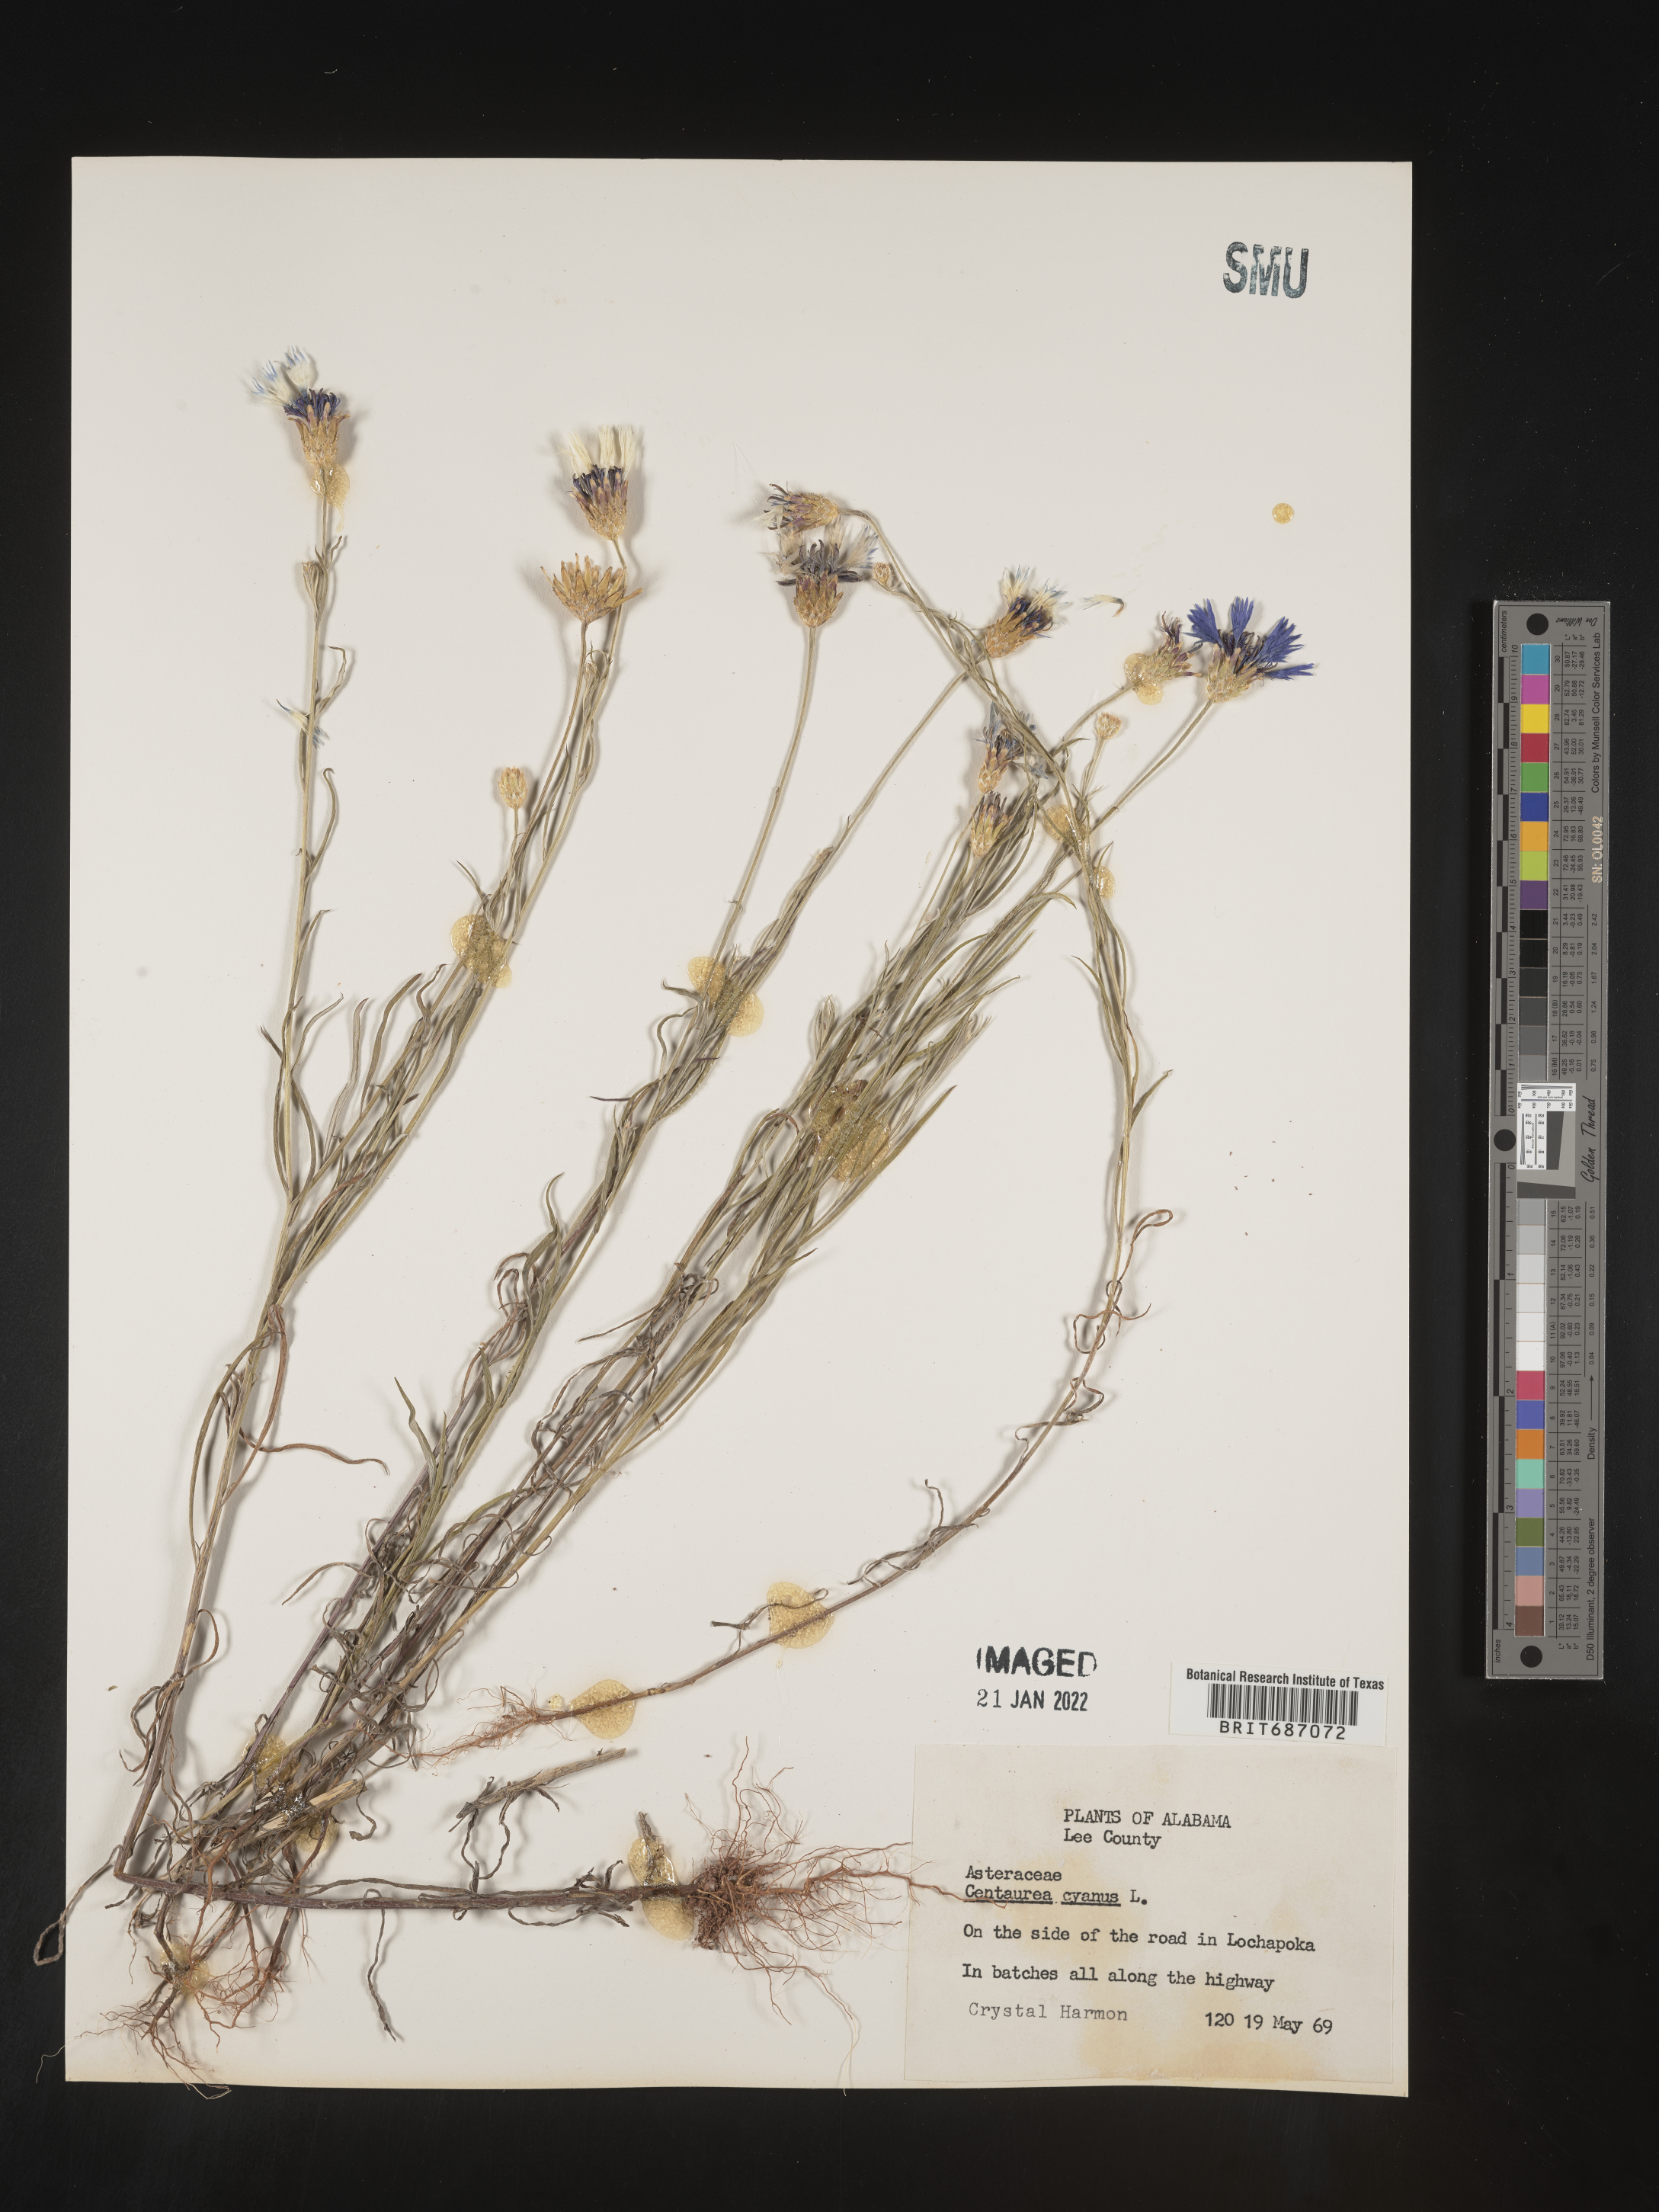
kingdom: Plantae
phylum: Tracheophyta
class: Magnoliopsida
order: Asterales
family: Asteraceae
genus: Centaurea
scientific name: Centaurea cyanus
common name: Cornflower
